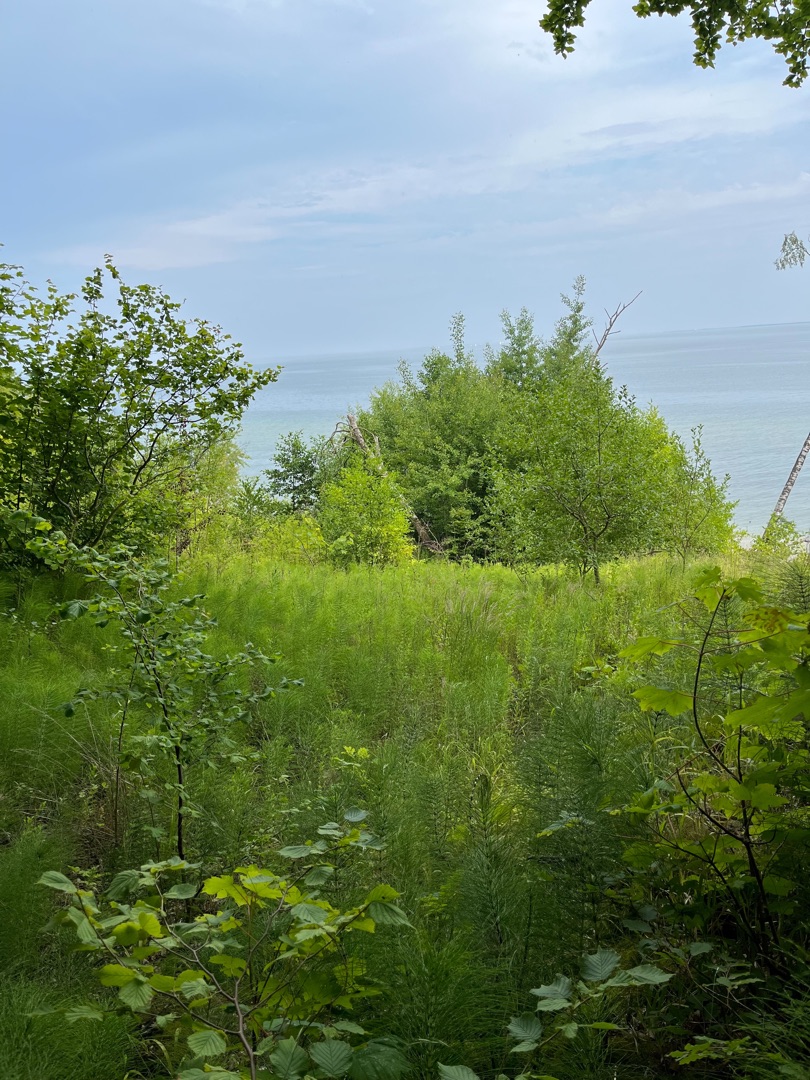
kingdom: Plantae
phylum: Tracheophyta
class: Polypodiopsida
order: Equisetales
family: Equisetaceae
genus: Equisetum
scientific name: Equisetum telmateia
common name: Elfenbens-padderok
